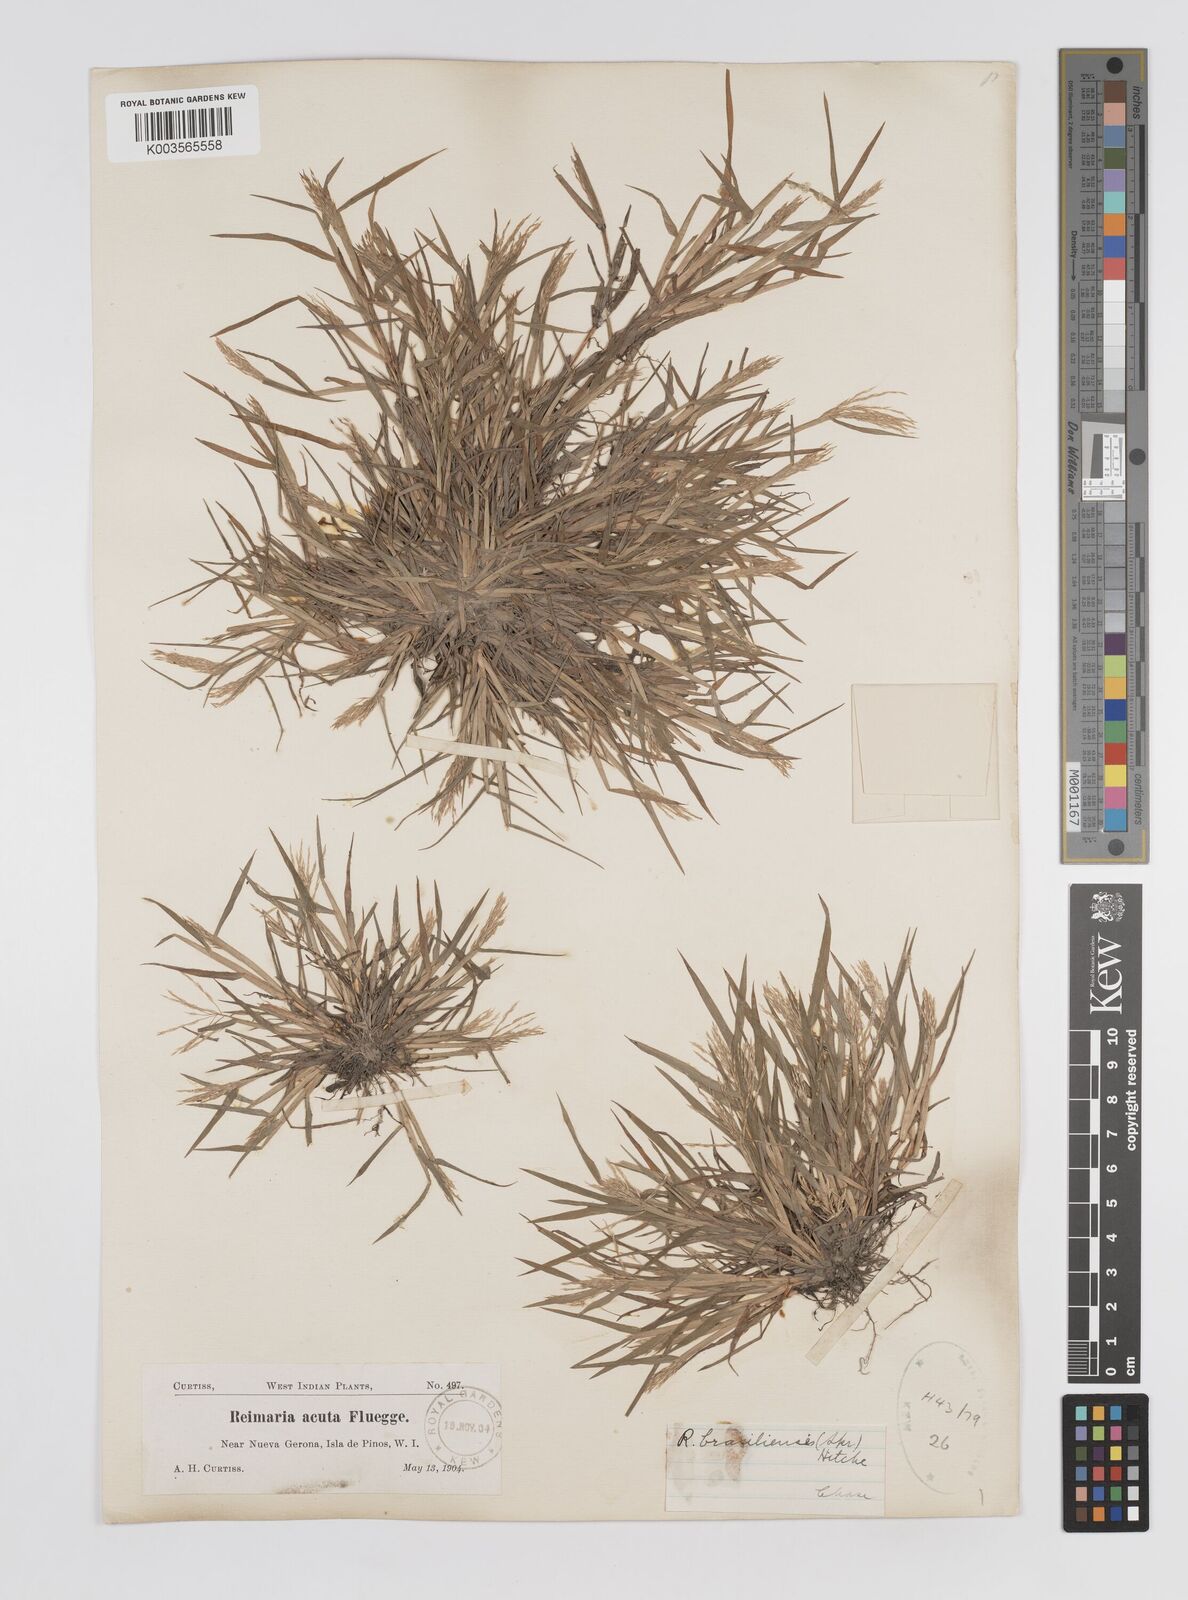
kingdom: Plantae
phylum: Tracheophyta
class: Liliopsida
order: Poales
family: Poaceae
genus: Paspalum
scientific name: Paspalum stagnophilum
